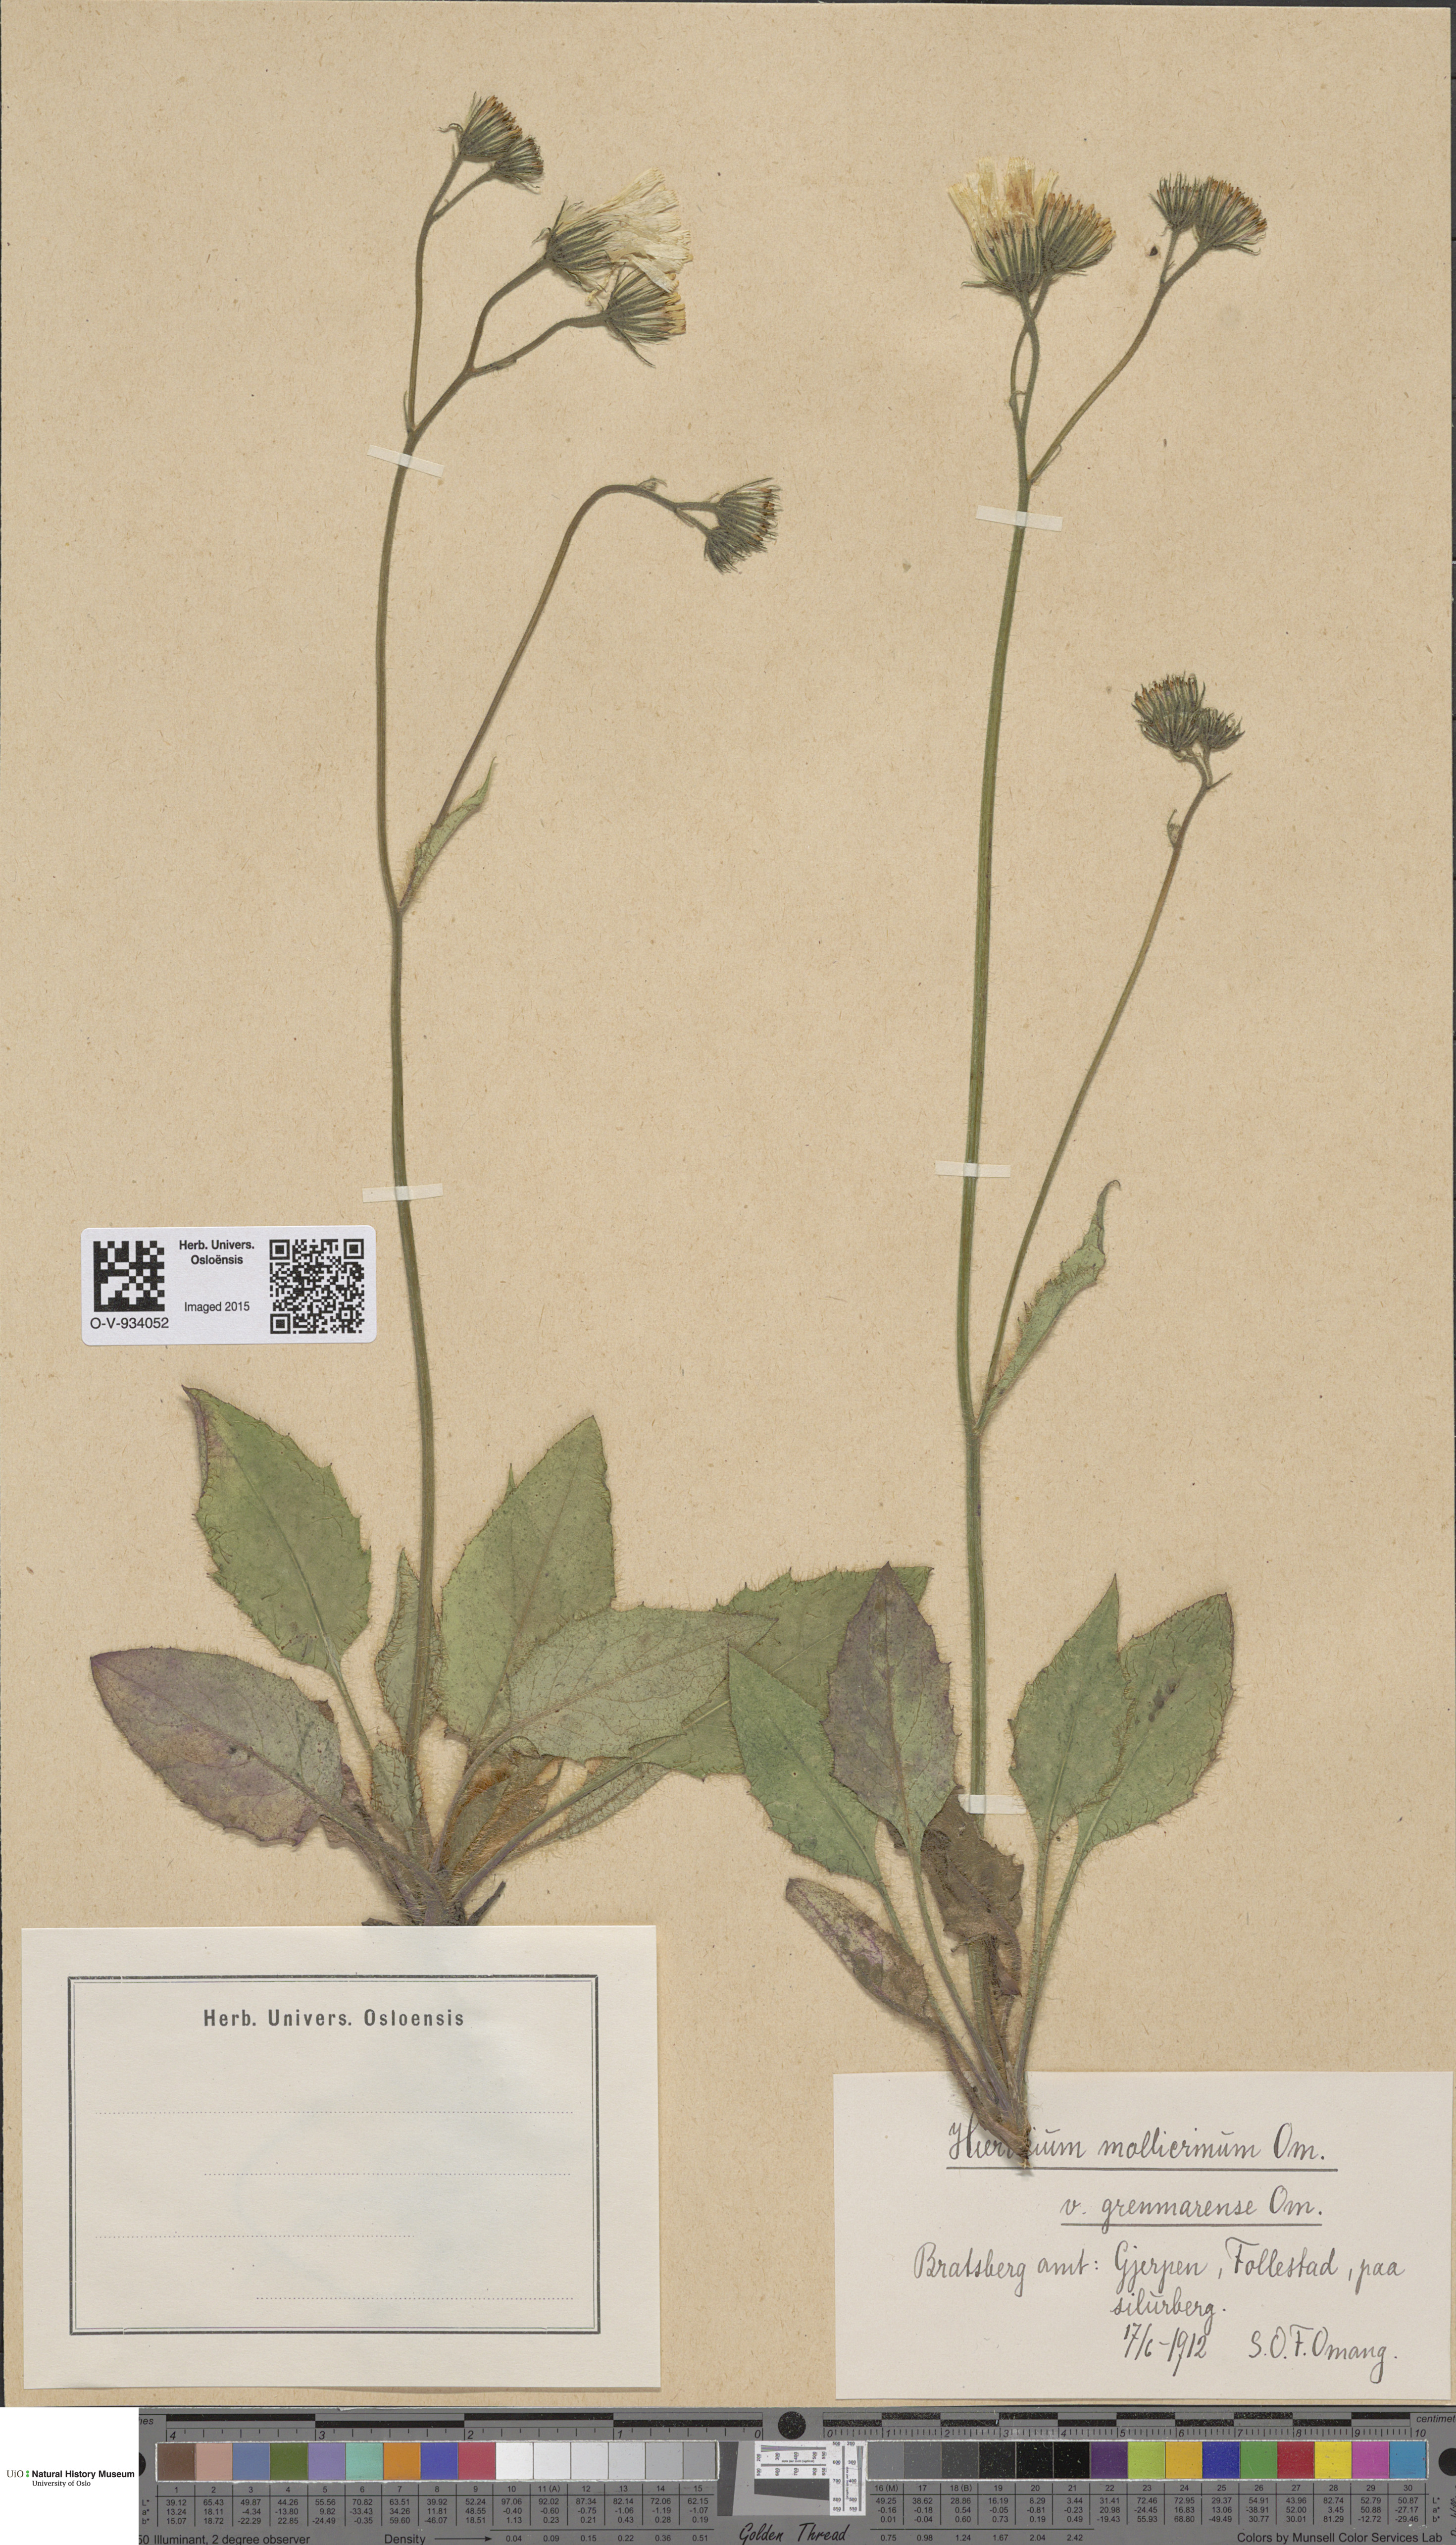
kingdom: Plantae
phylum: Tracheophyta
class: Magnoliopsida
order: Asterales
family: Asteraceae
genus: Hieracium
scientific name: Hieracium schmidtii
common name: Schmidt's hawkweed
